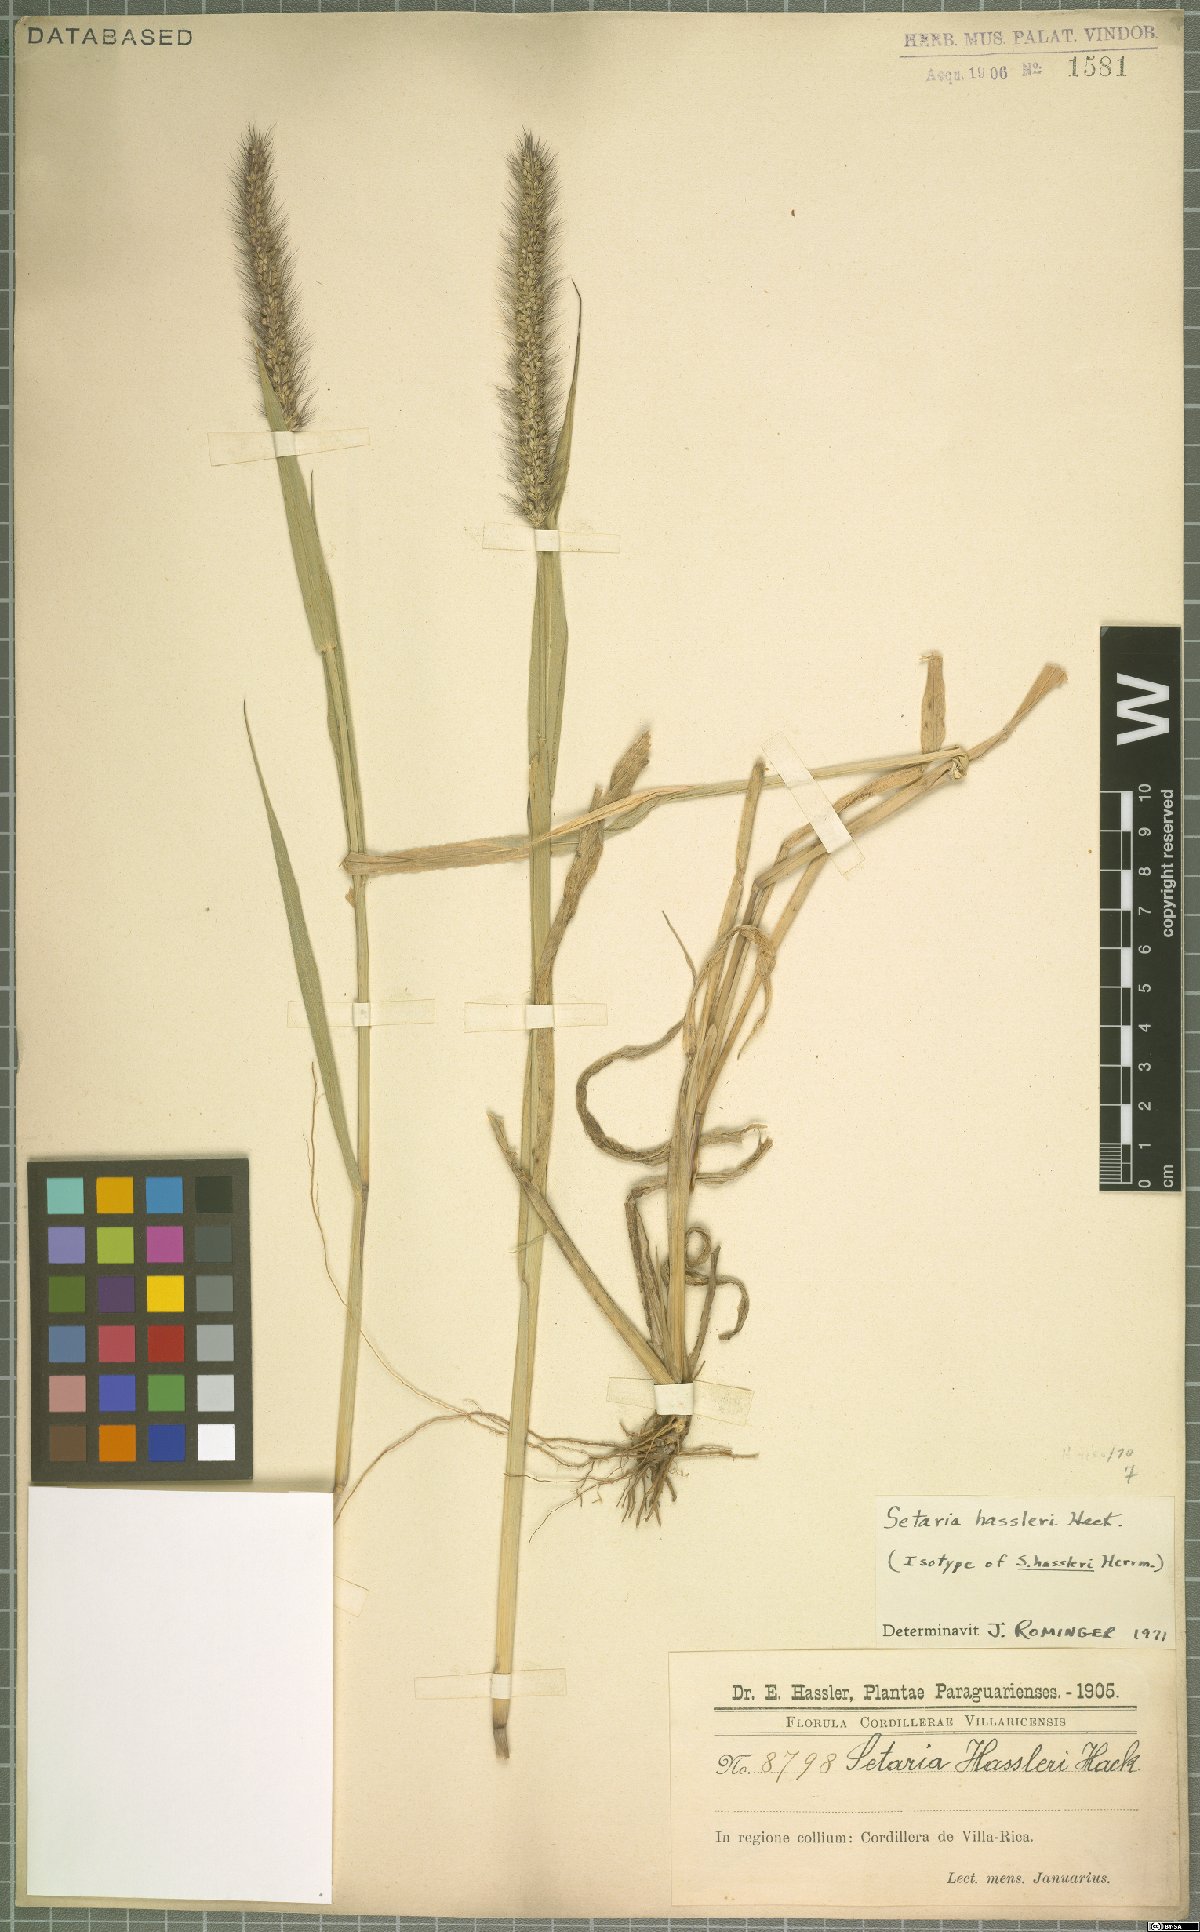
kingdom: Plantae
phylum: Tracheophyta
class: Liliopsida
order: Poales
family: Poaceae
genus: Setaria
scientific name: Setaria hassleri
